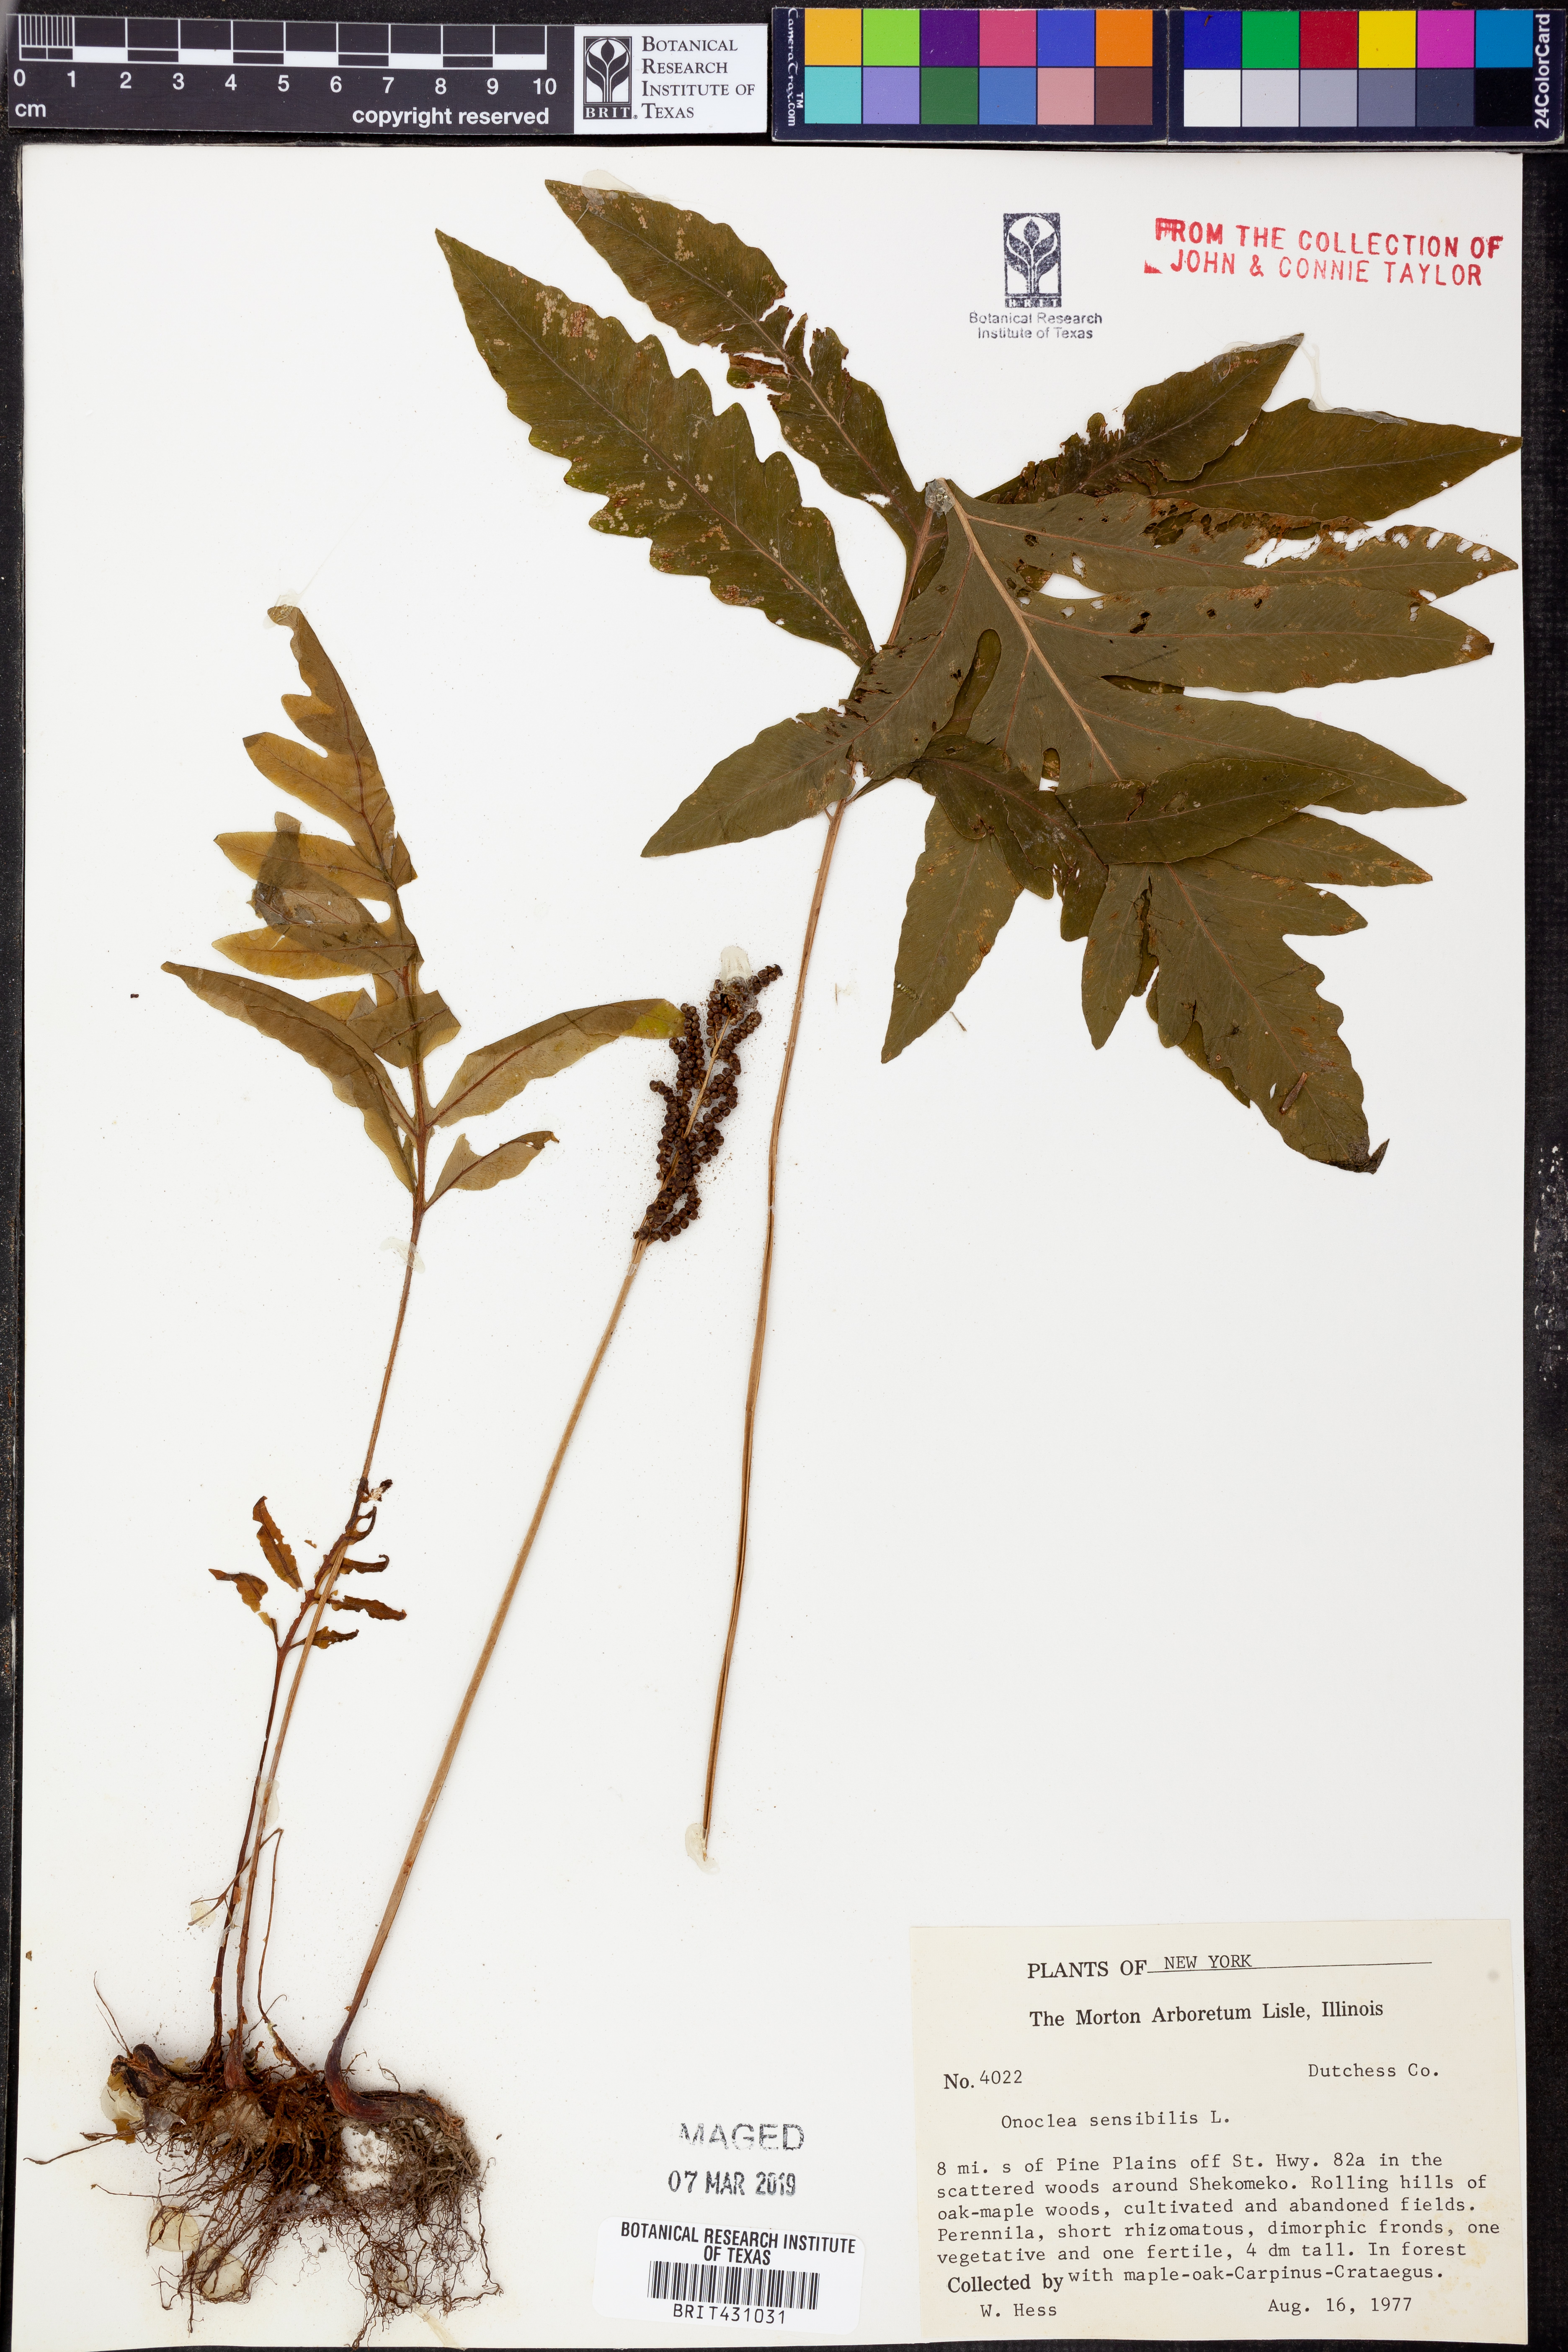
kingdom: Plantae
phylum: Tracheophyta
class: Polypodiopsida
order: Polypodiales
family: Onocleaceae
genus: Onoclea
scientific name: Onoclea sensibilis
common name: Sensitive fern
